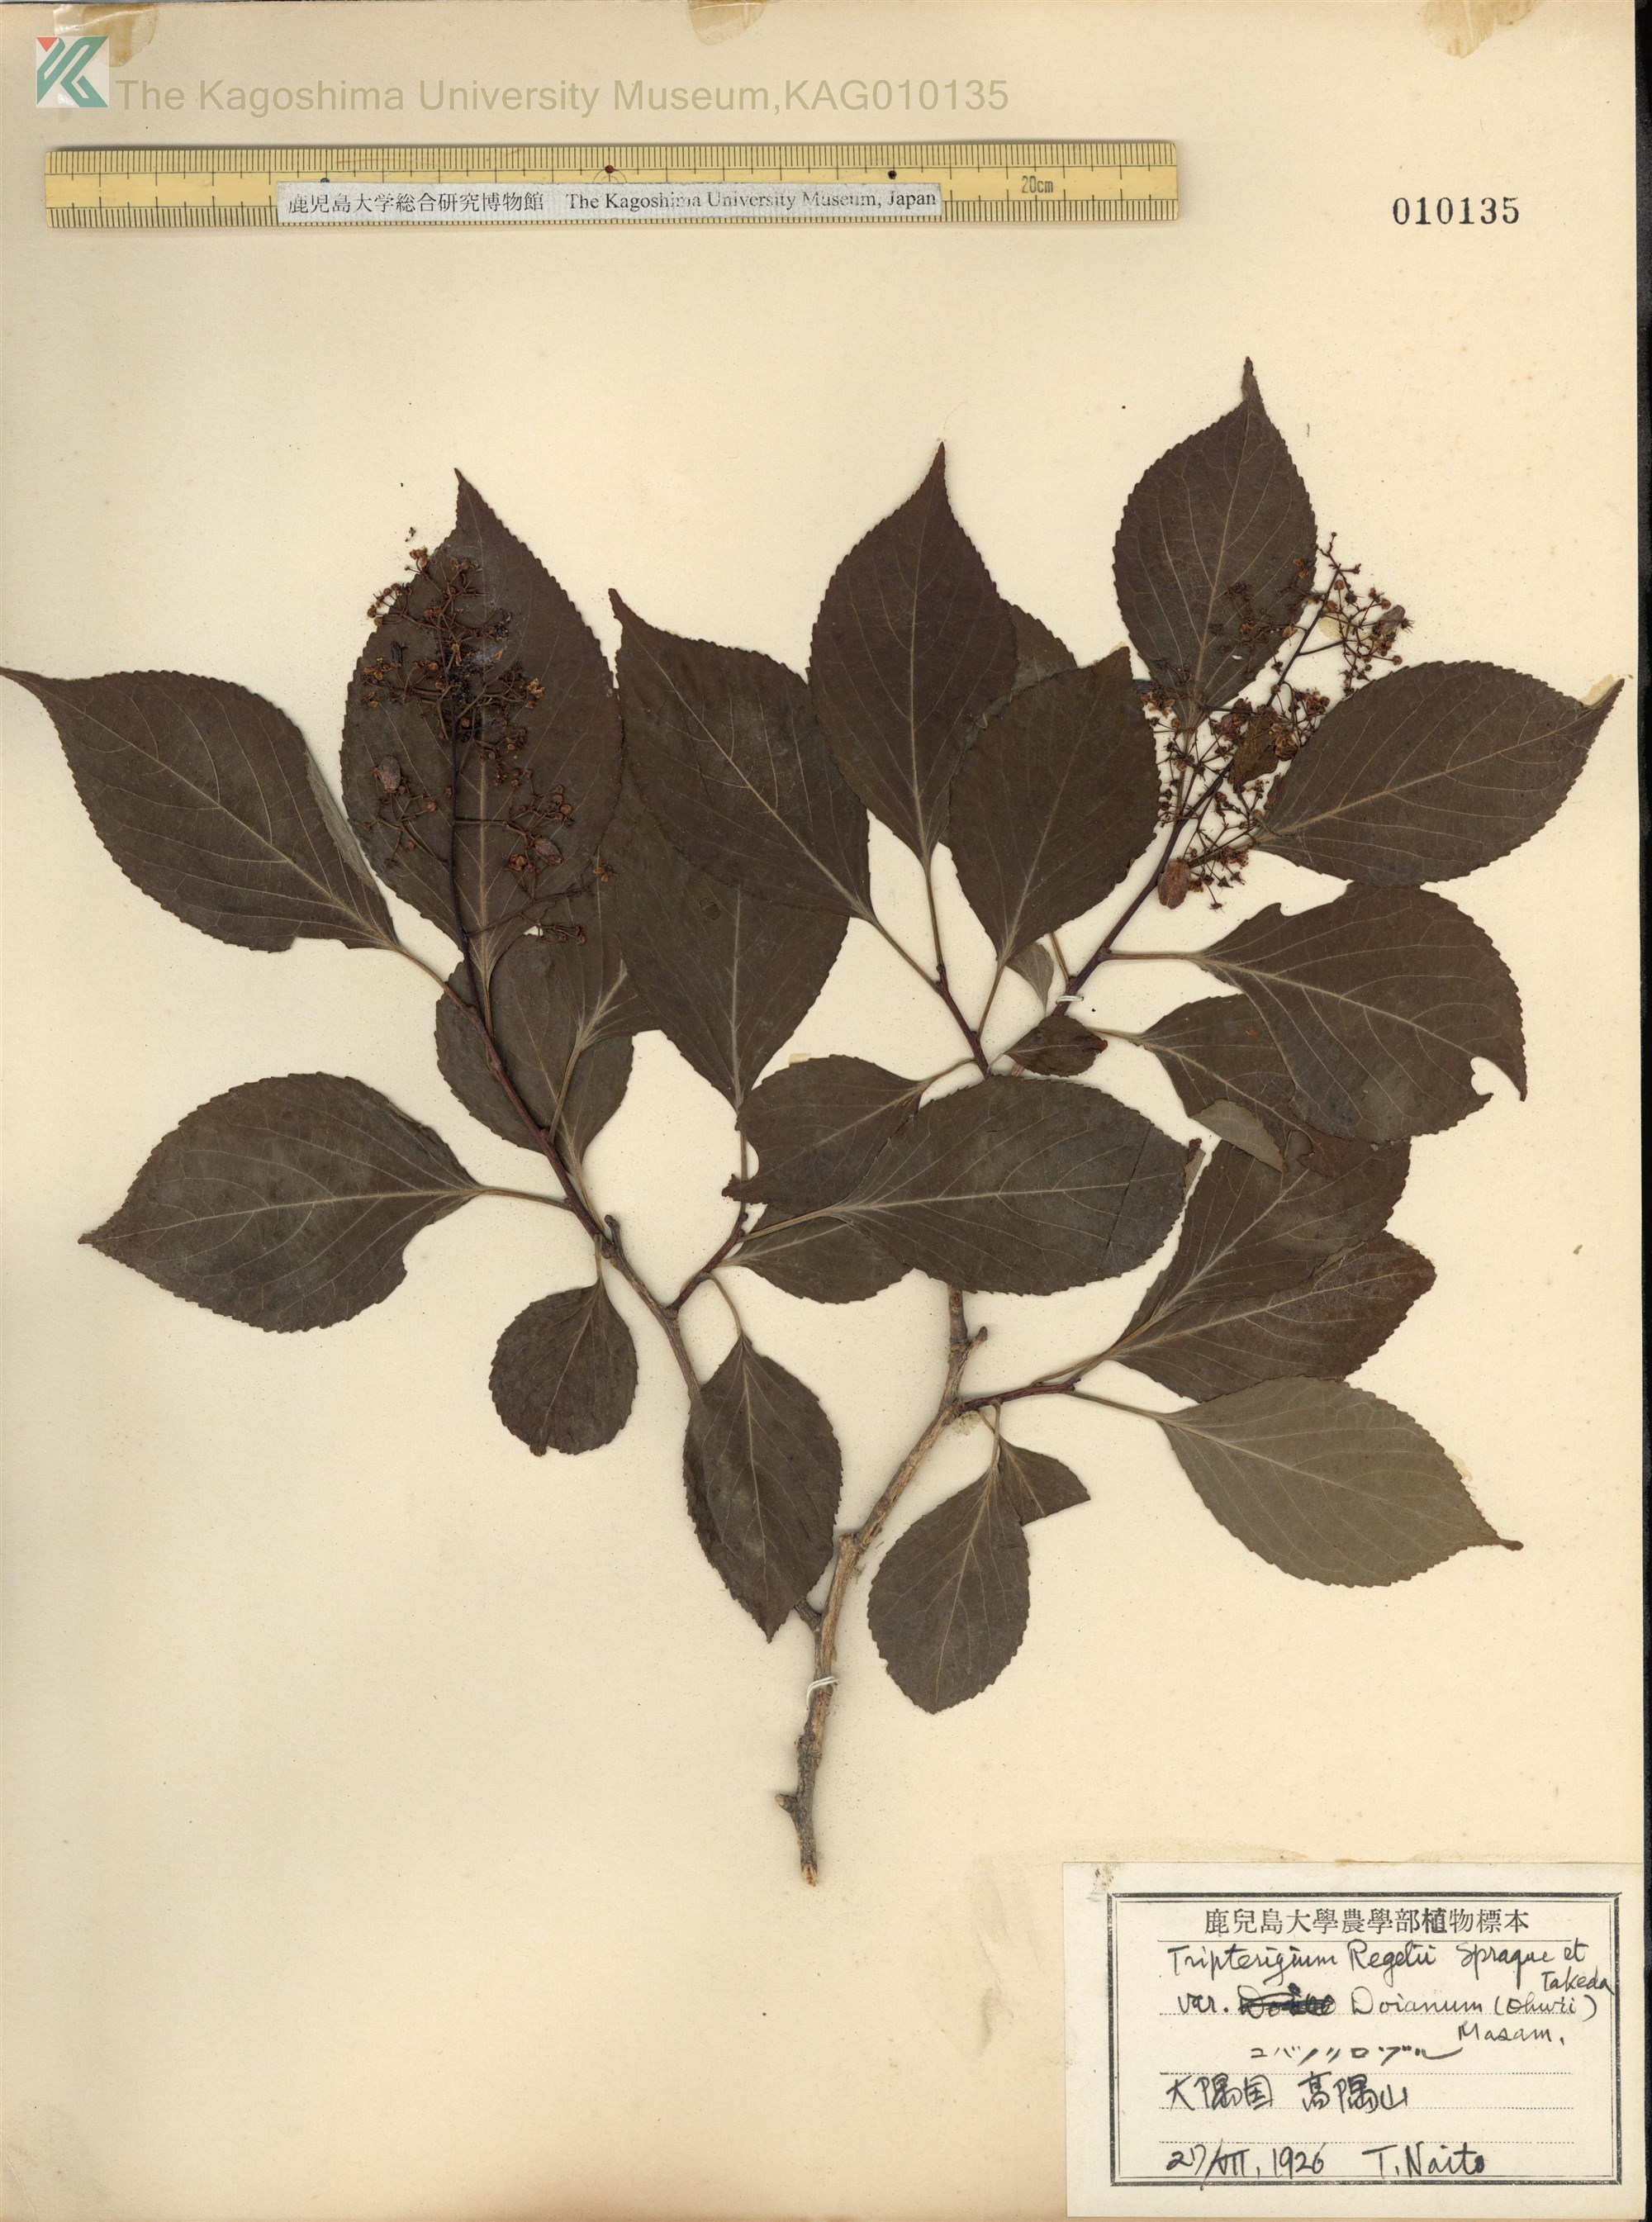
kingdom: Plantae
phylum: Tracheophyta
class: Magnoliopsida
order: Celastrales
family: Celastraceae
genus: Tripterygium
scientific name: Tripterygium doianum
